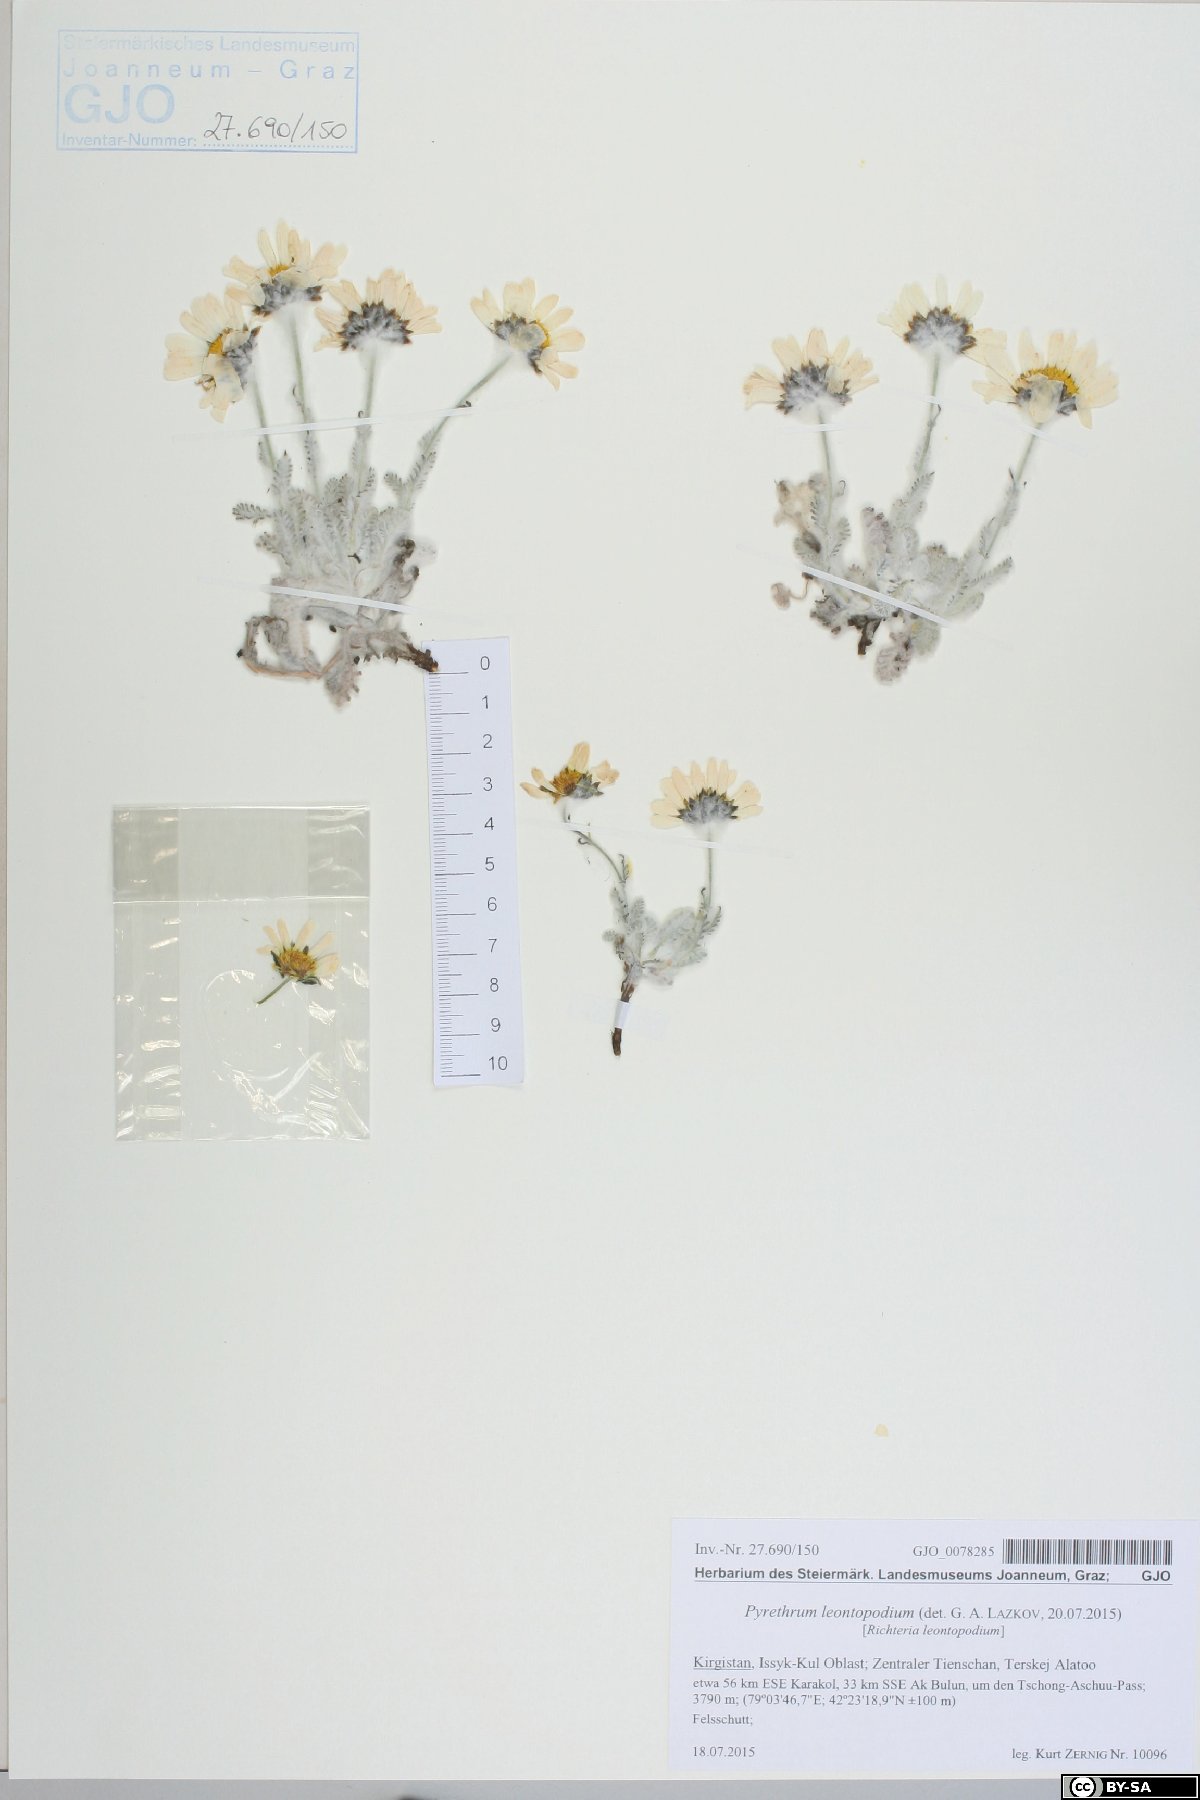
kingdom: Plantae
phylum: Tracheophyta
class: Magnoliopsida
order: Asterales
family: Asteraceae
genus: Richteria
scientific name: Richteria leontopodium
